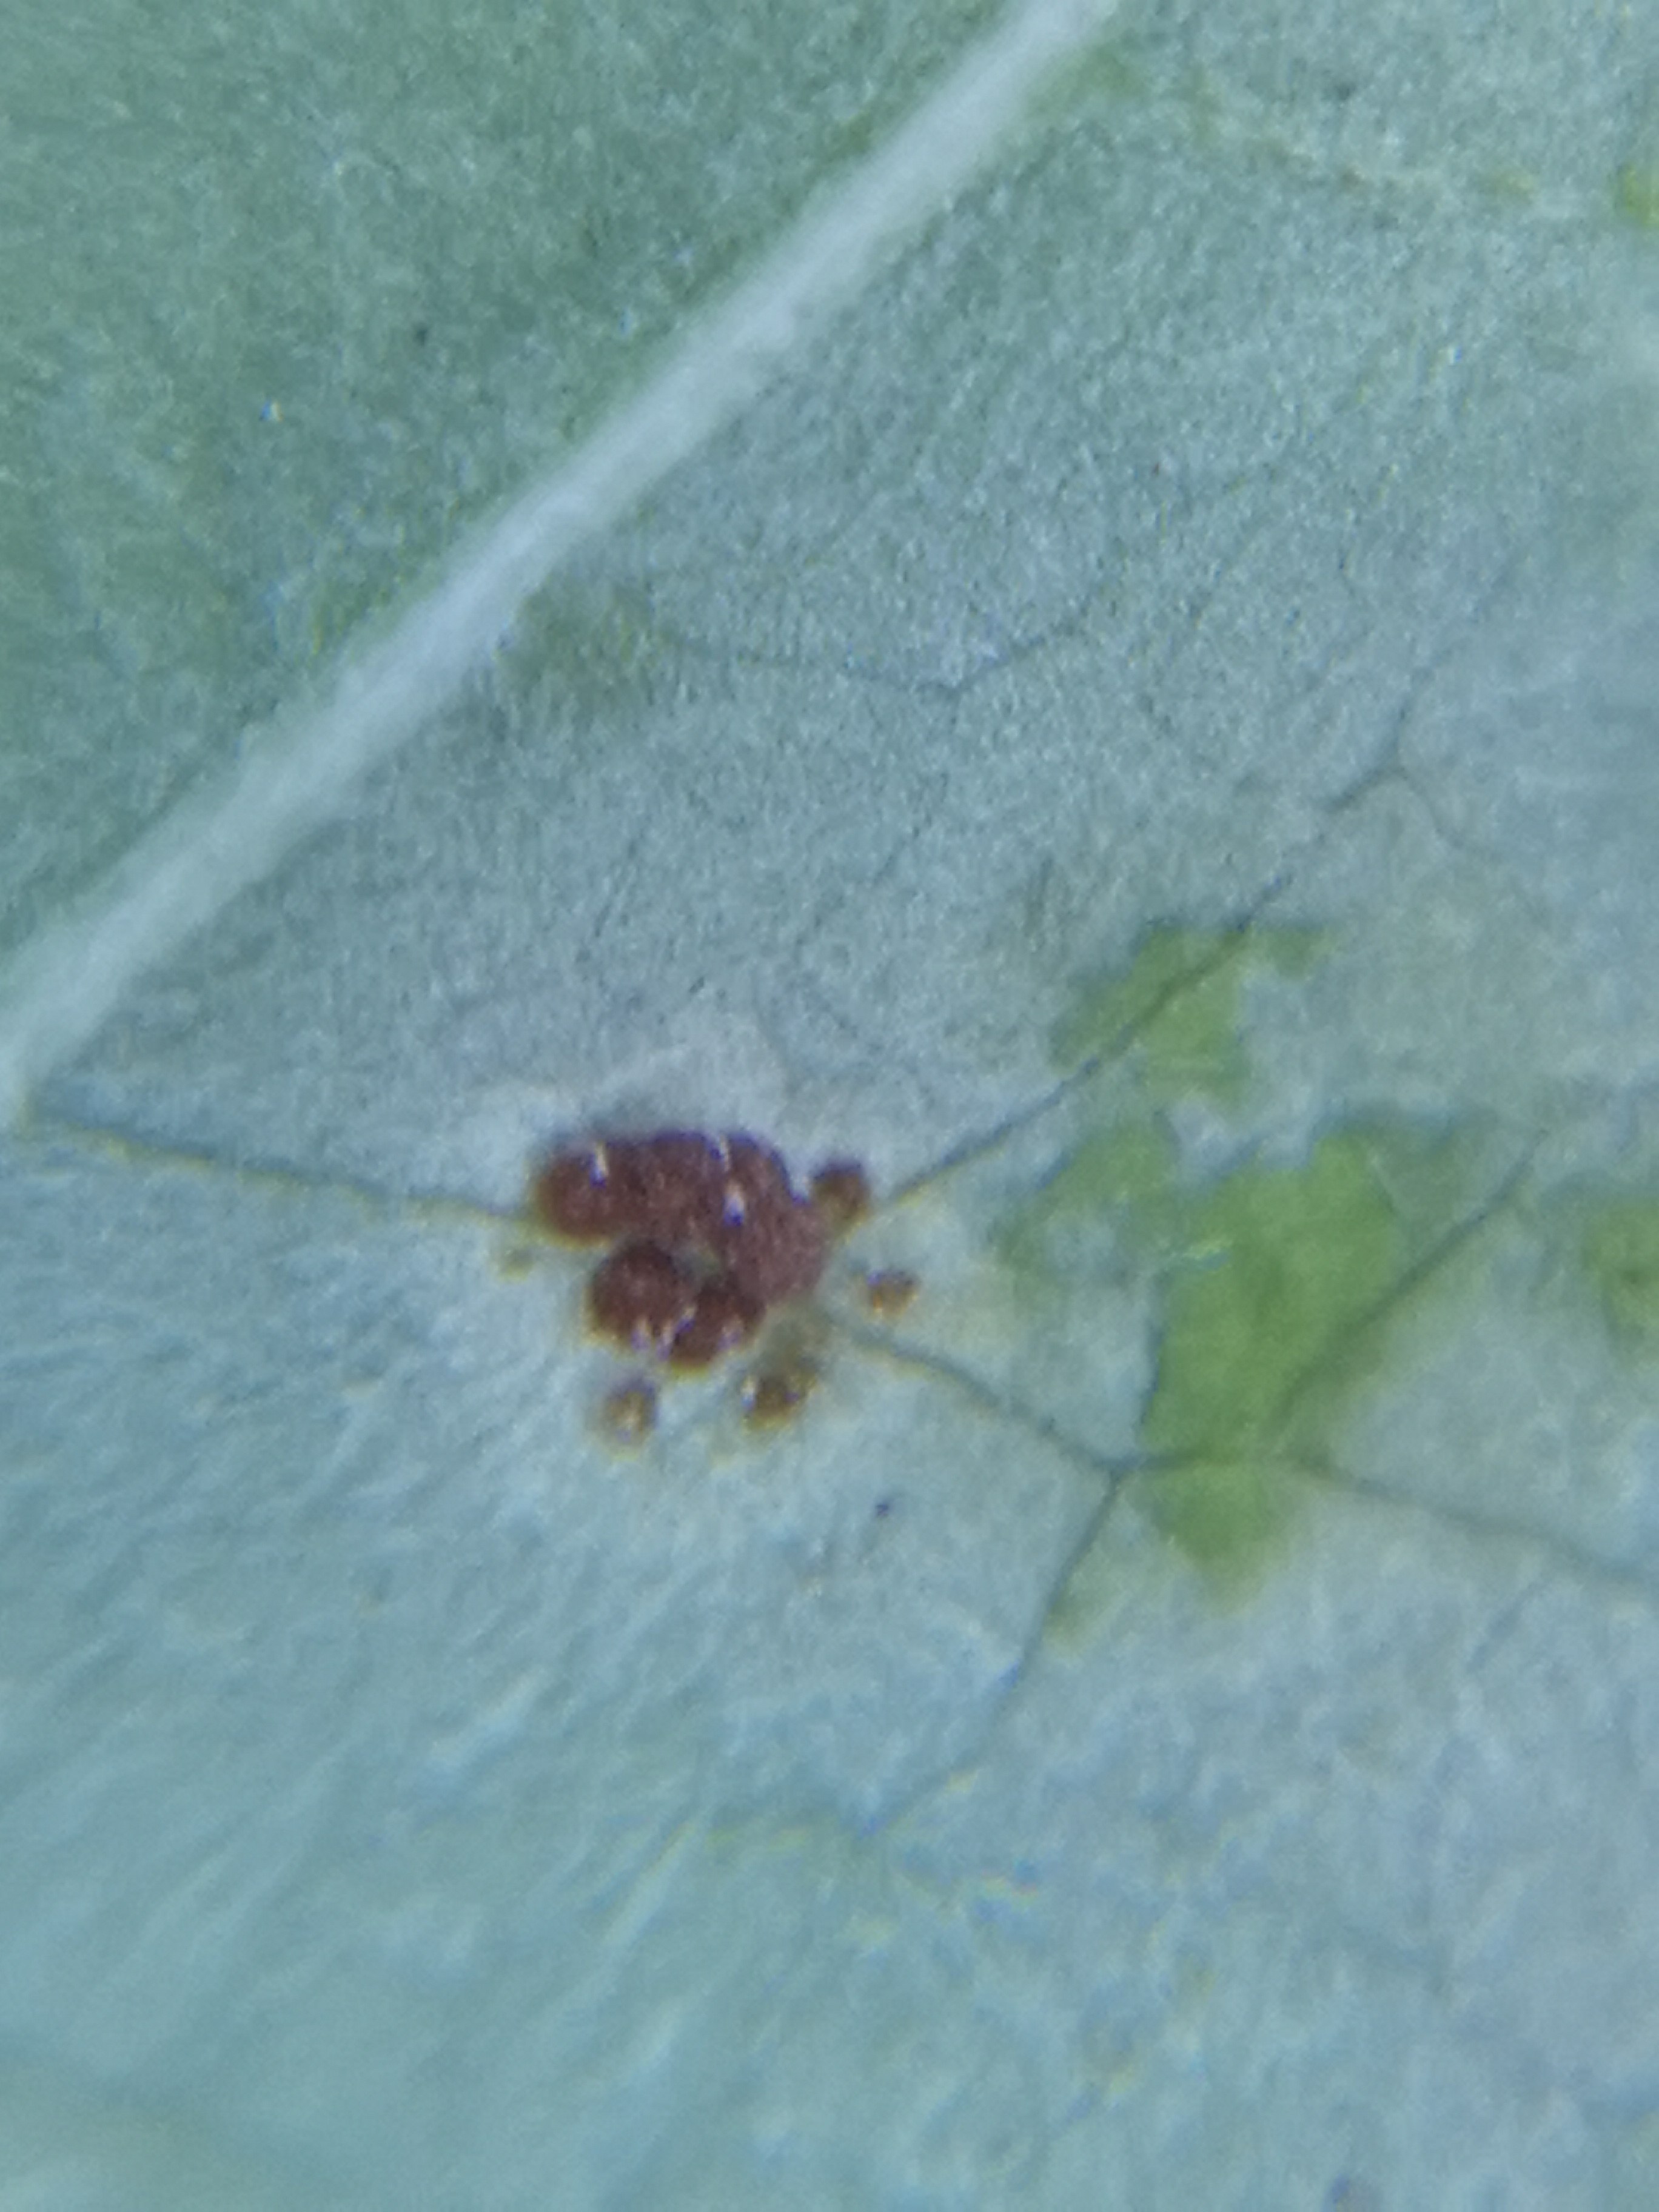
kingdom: Fungi
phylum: Basidiomycota
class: Pucciniomycetes
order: Pucciniales
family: Pucciniaceae
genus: Puccinia
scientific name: Puccinia circaeae
